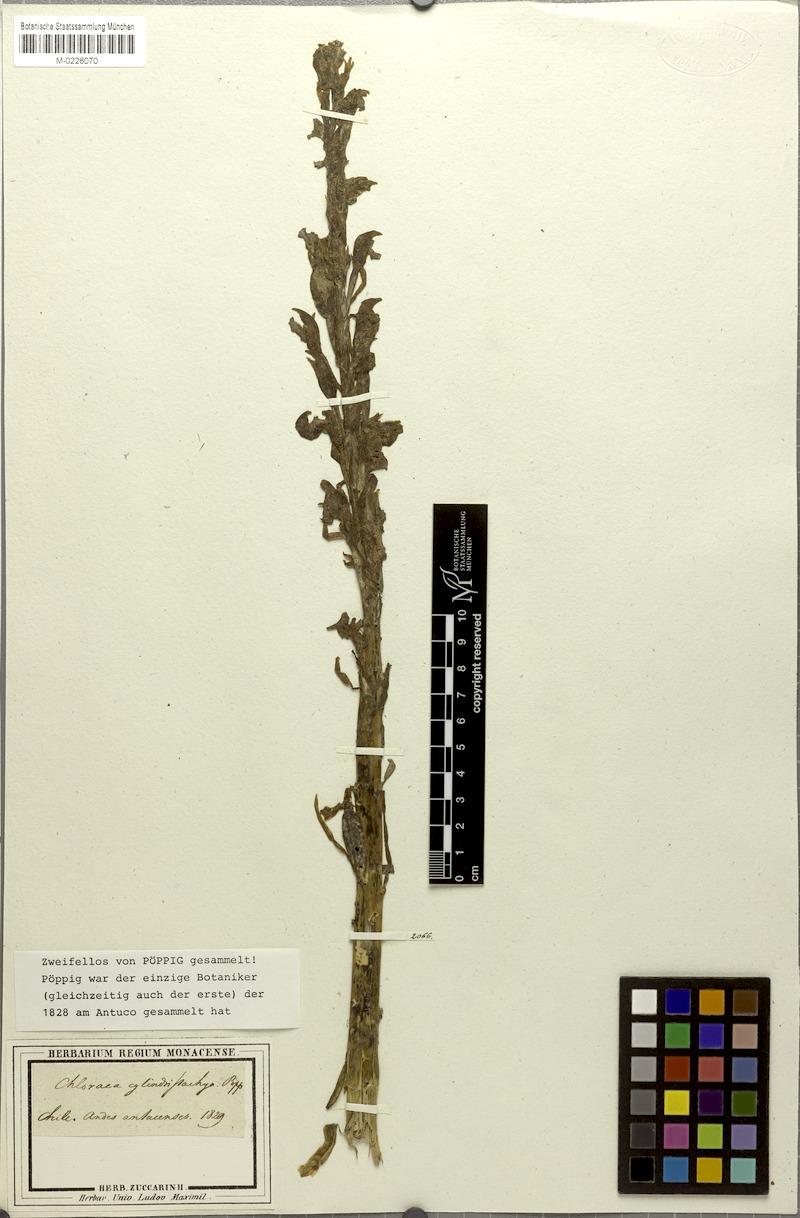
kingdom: Plantae
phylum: Tracheophyta
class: Liliopsida
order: Asparagales
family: Orchidaceae
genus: Chloraea
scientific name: Chloraea cylindrostachya
